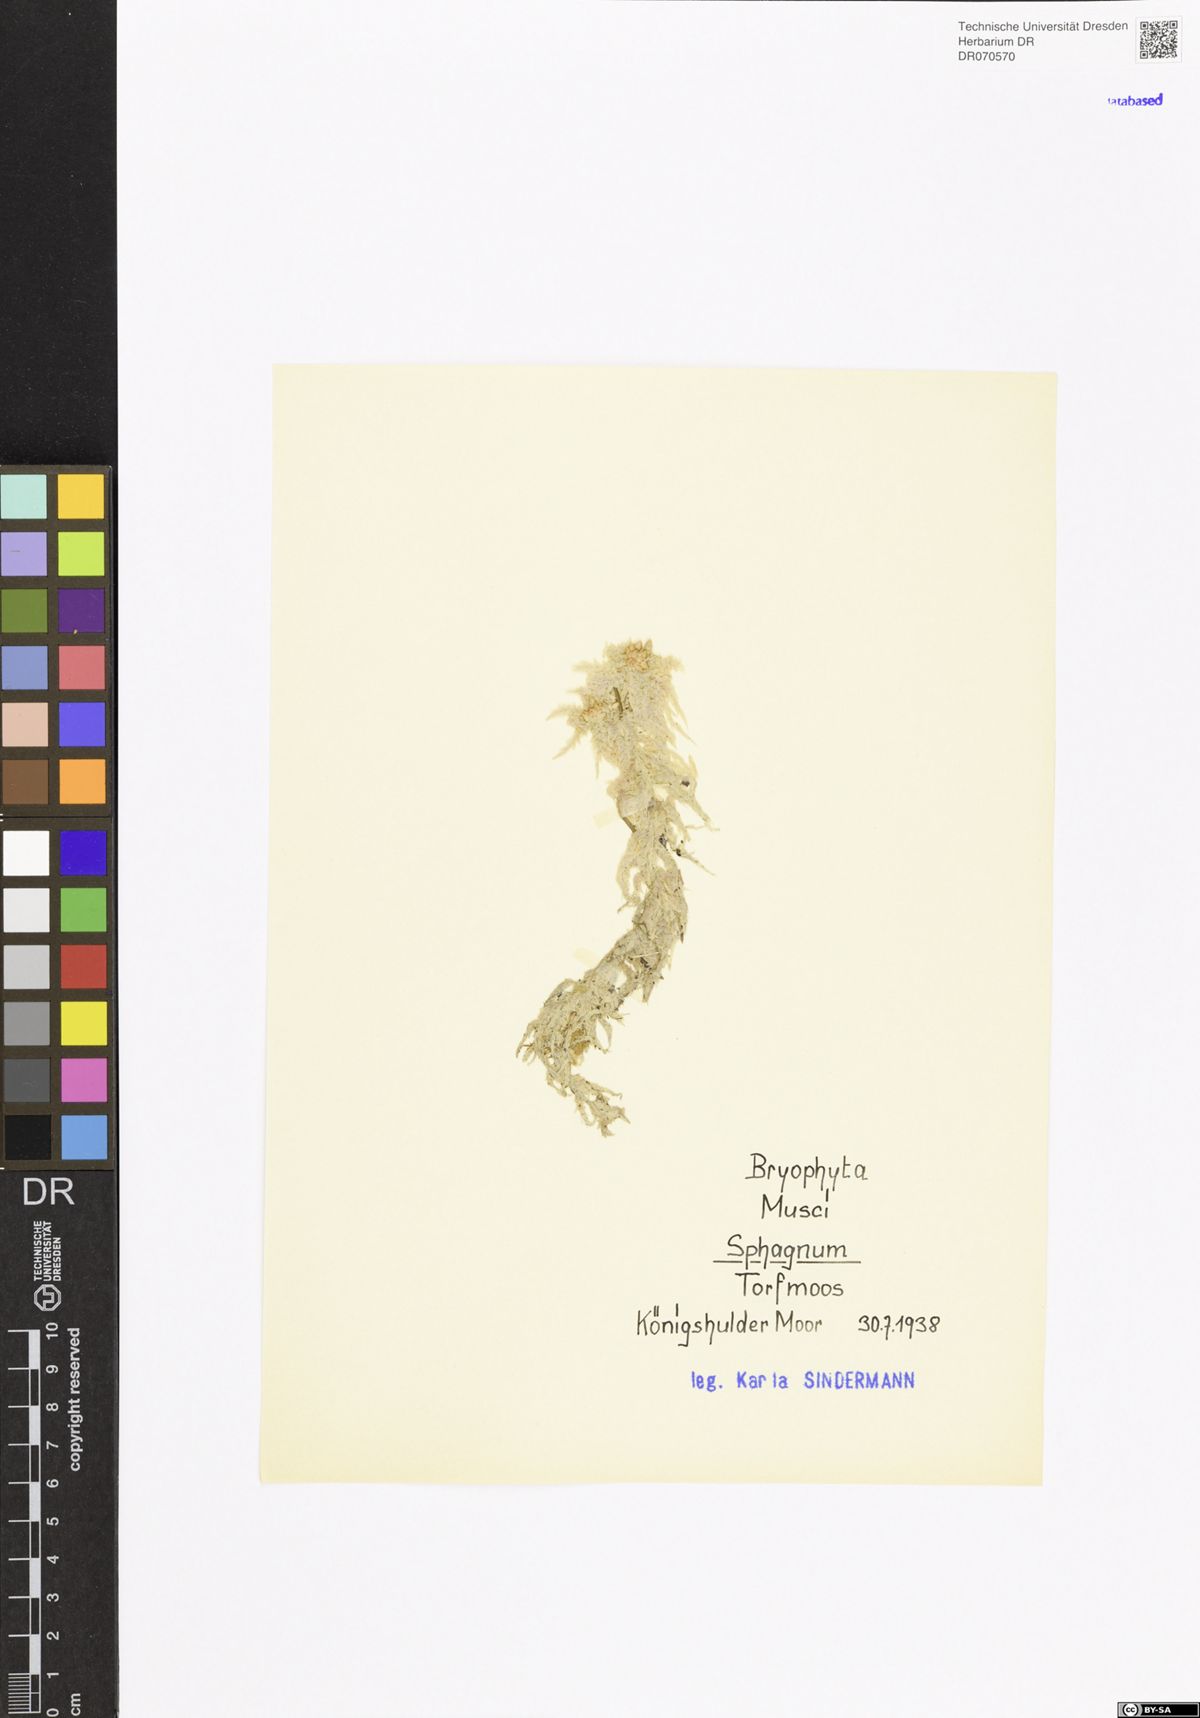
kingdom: Plantae
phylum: Bryophyta
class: Sphagnopsida
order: Sphagnales
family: Sphagnaceae
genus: Sphagnum
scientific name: Sphagnum
